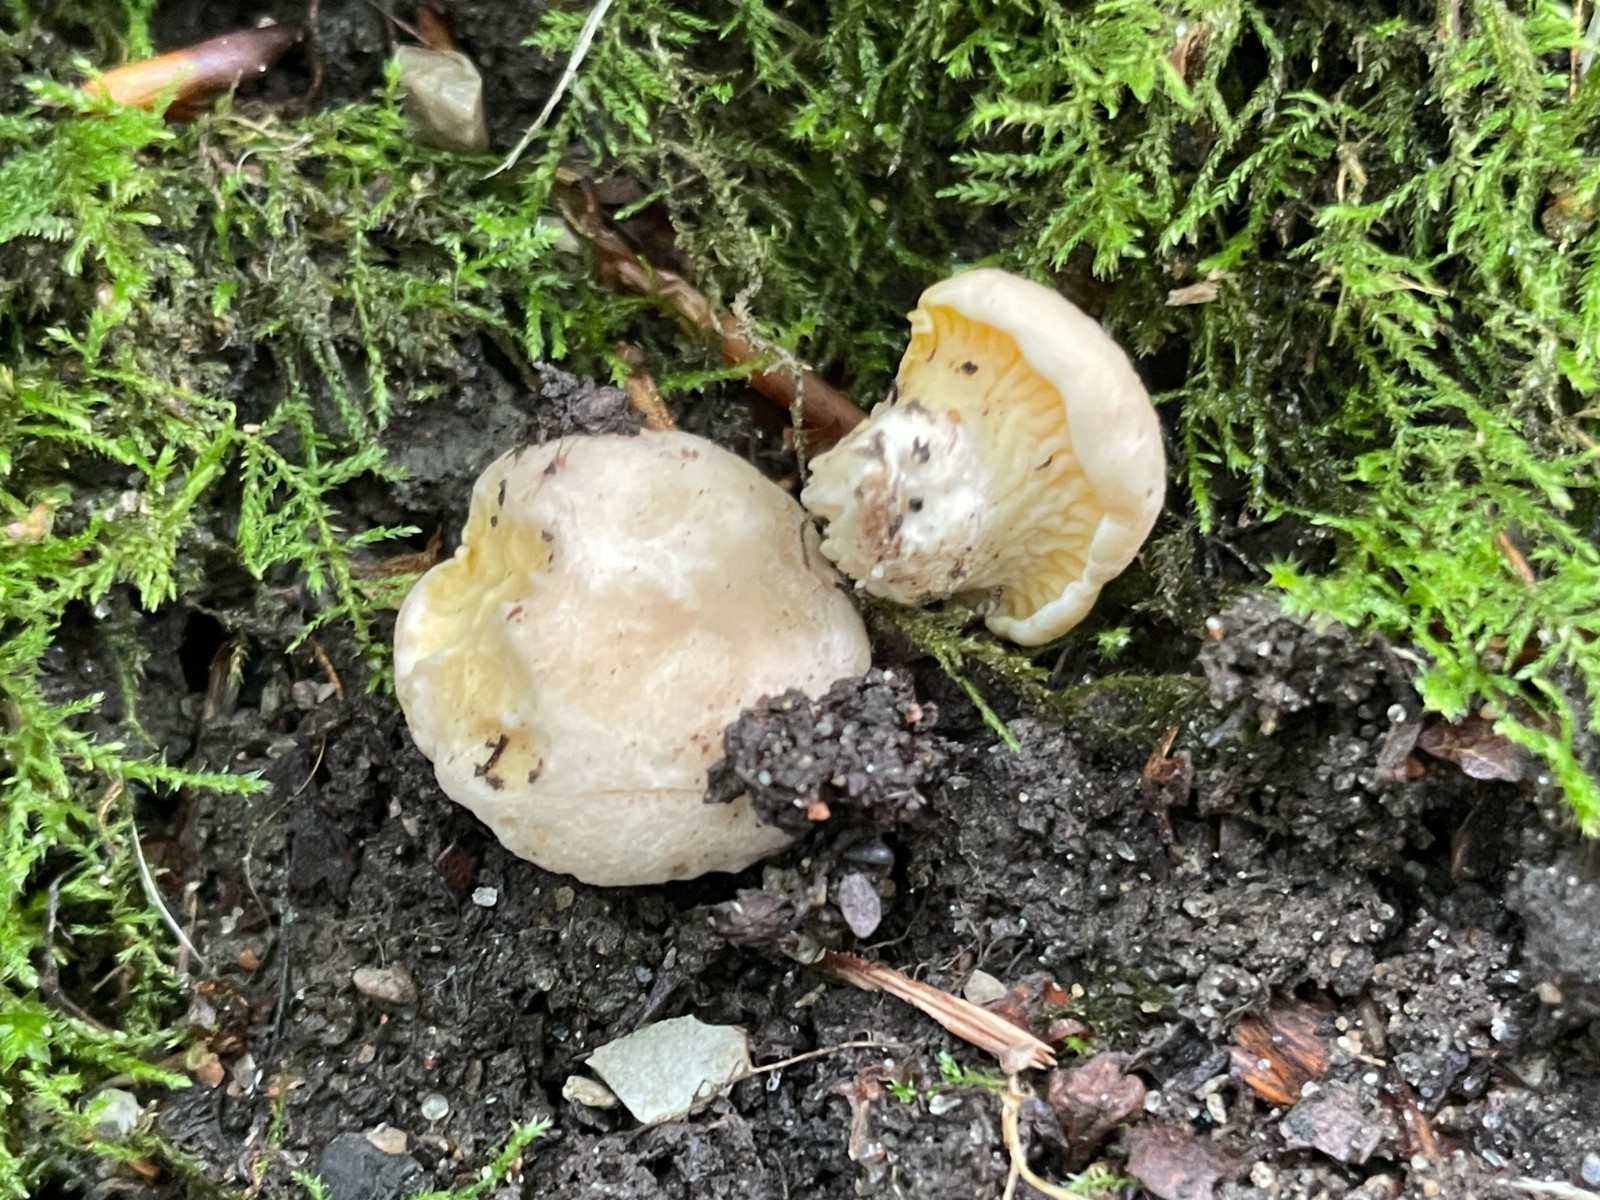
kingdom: Fungi
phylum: Basidiomycota
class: Agaricomycetes
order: Cantharellales
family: Hydnaceae
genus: Cantharellus
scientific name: Cantharellus pallens
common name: bleg kantarel
